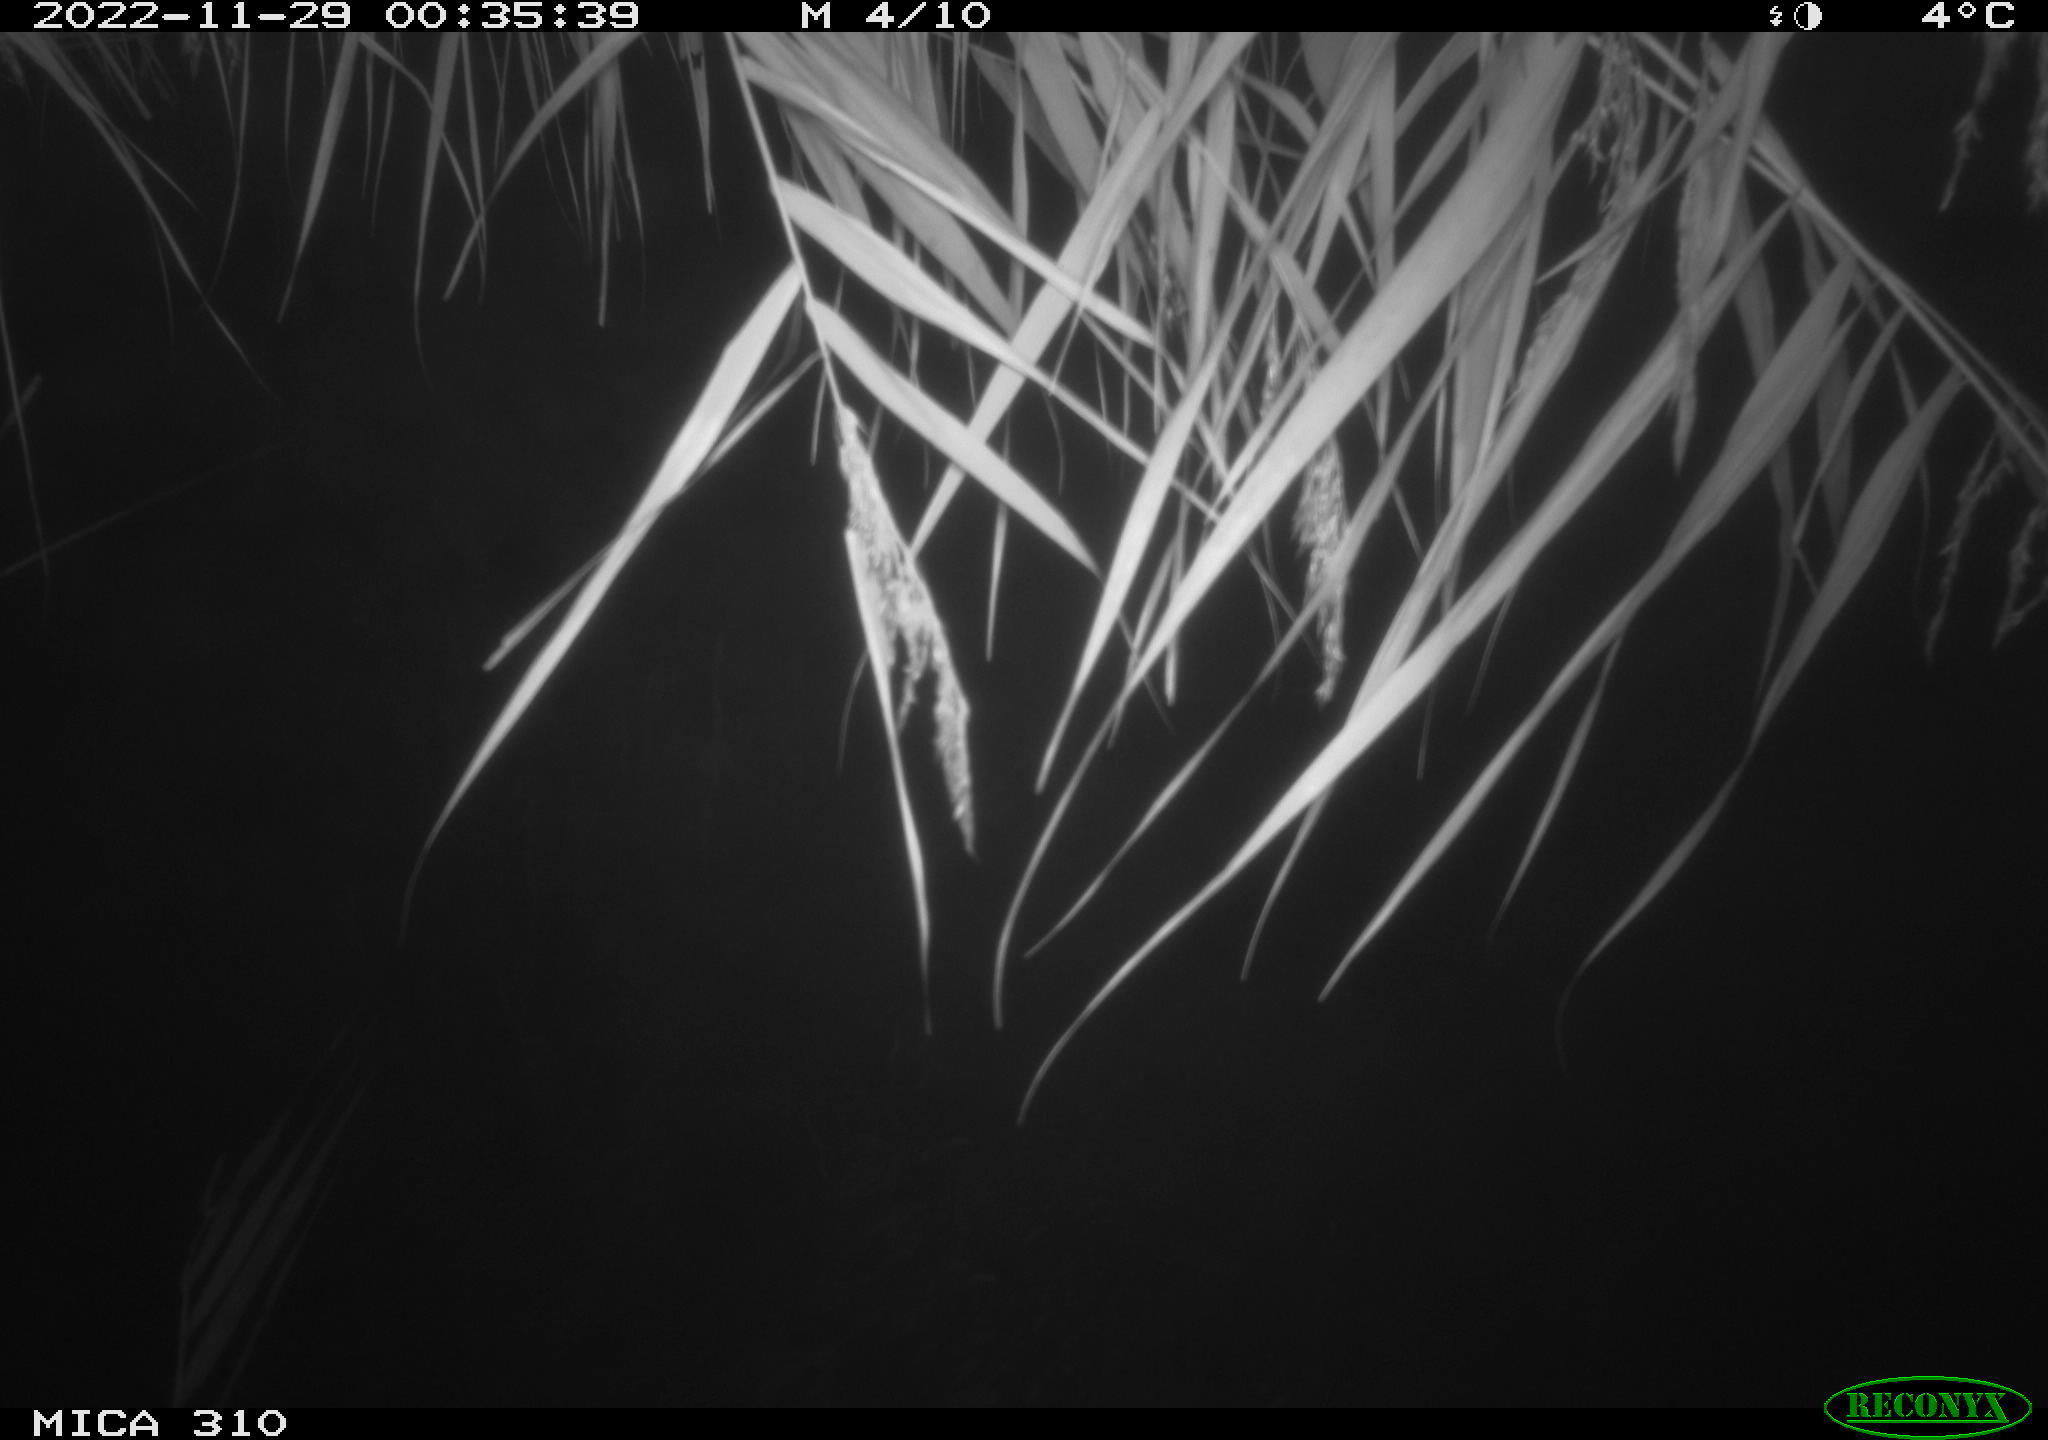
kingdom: Animalia
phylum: Chordata
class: Mammalia
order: Rodentia
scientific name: Rodentia
